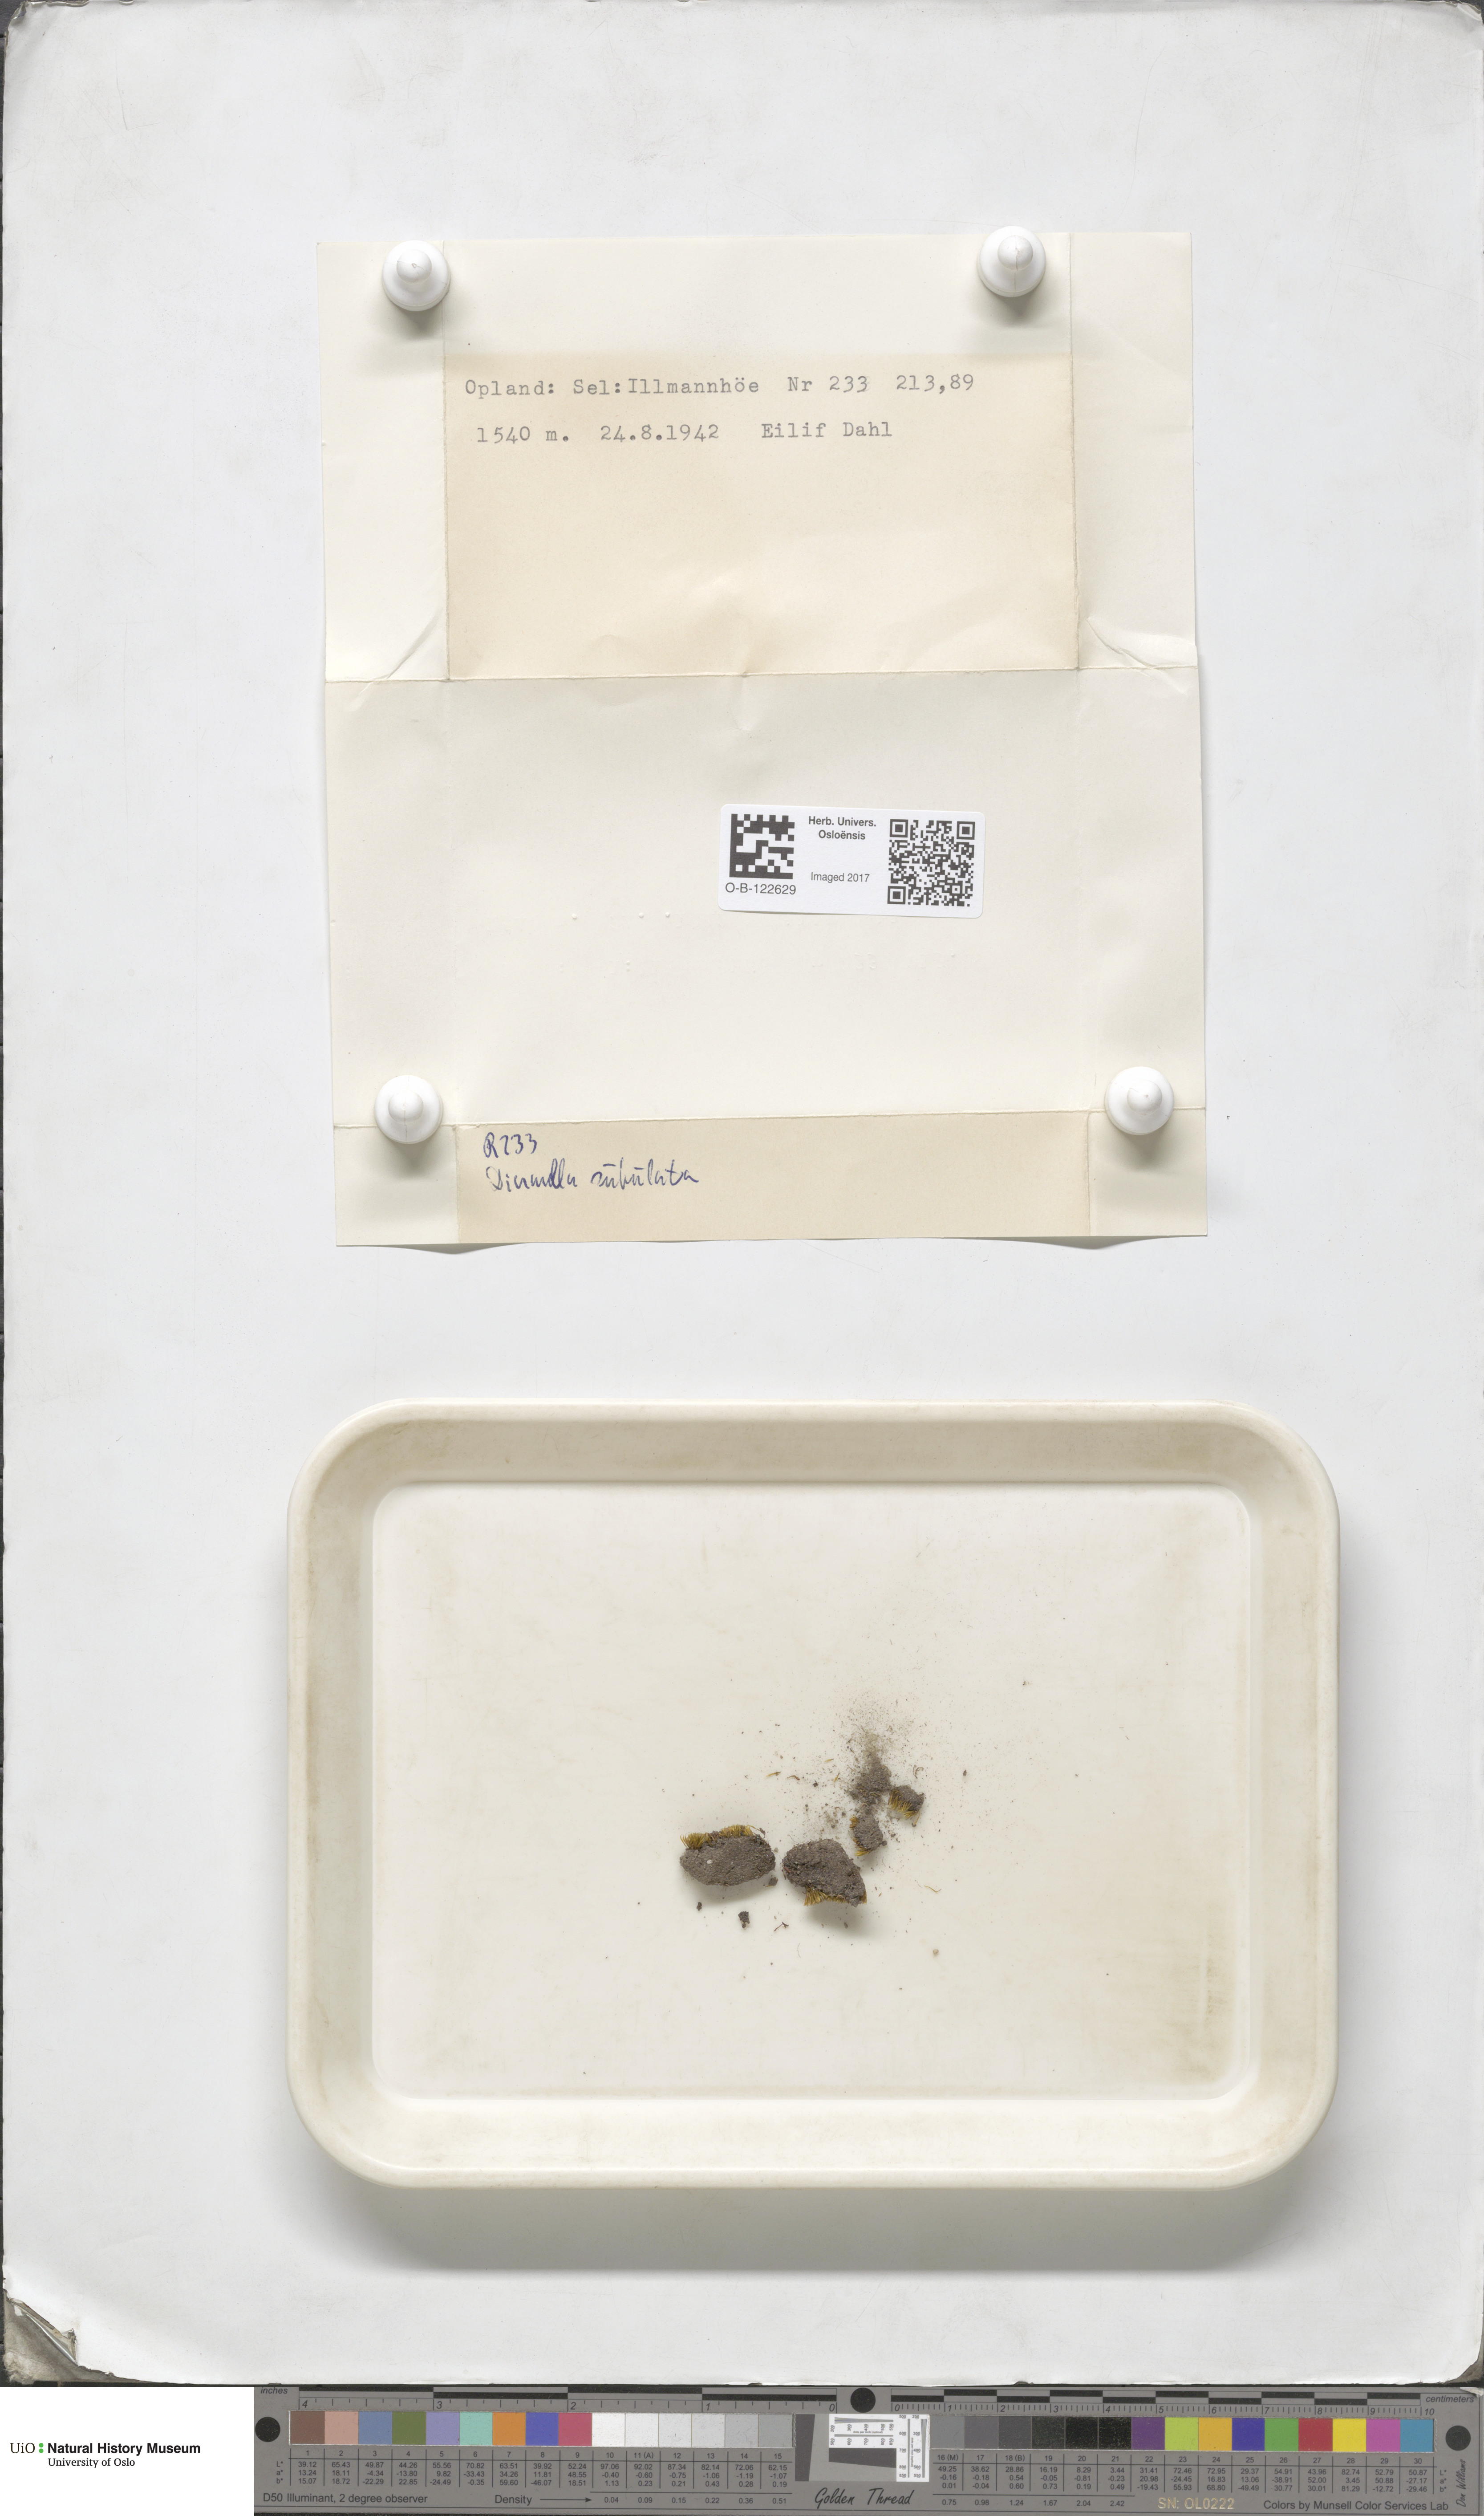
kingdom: Plantae
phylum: Bryophyta
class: Bryopsida
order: Dicranales
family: Dicranellaceae
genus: Dicranella
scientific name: Dicranella subulata
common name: Awl-leaved forklet moss
